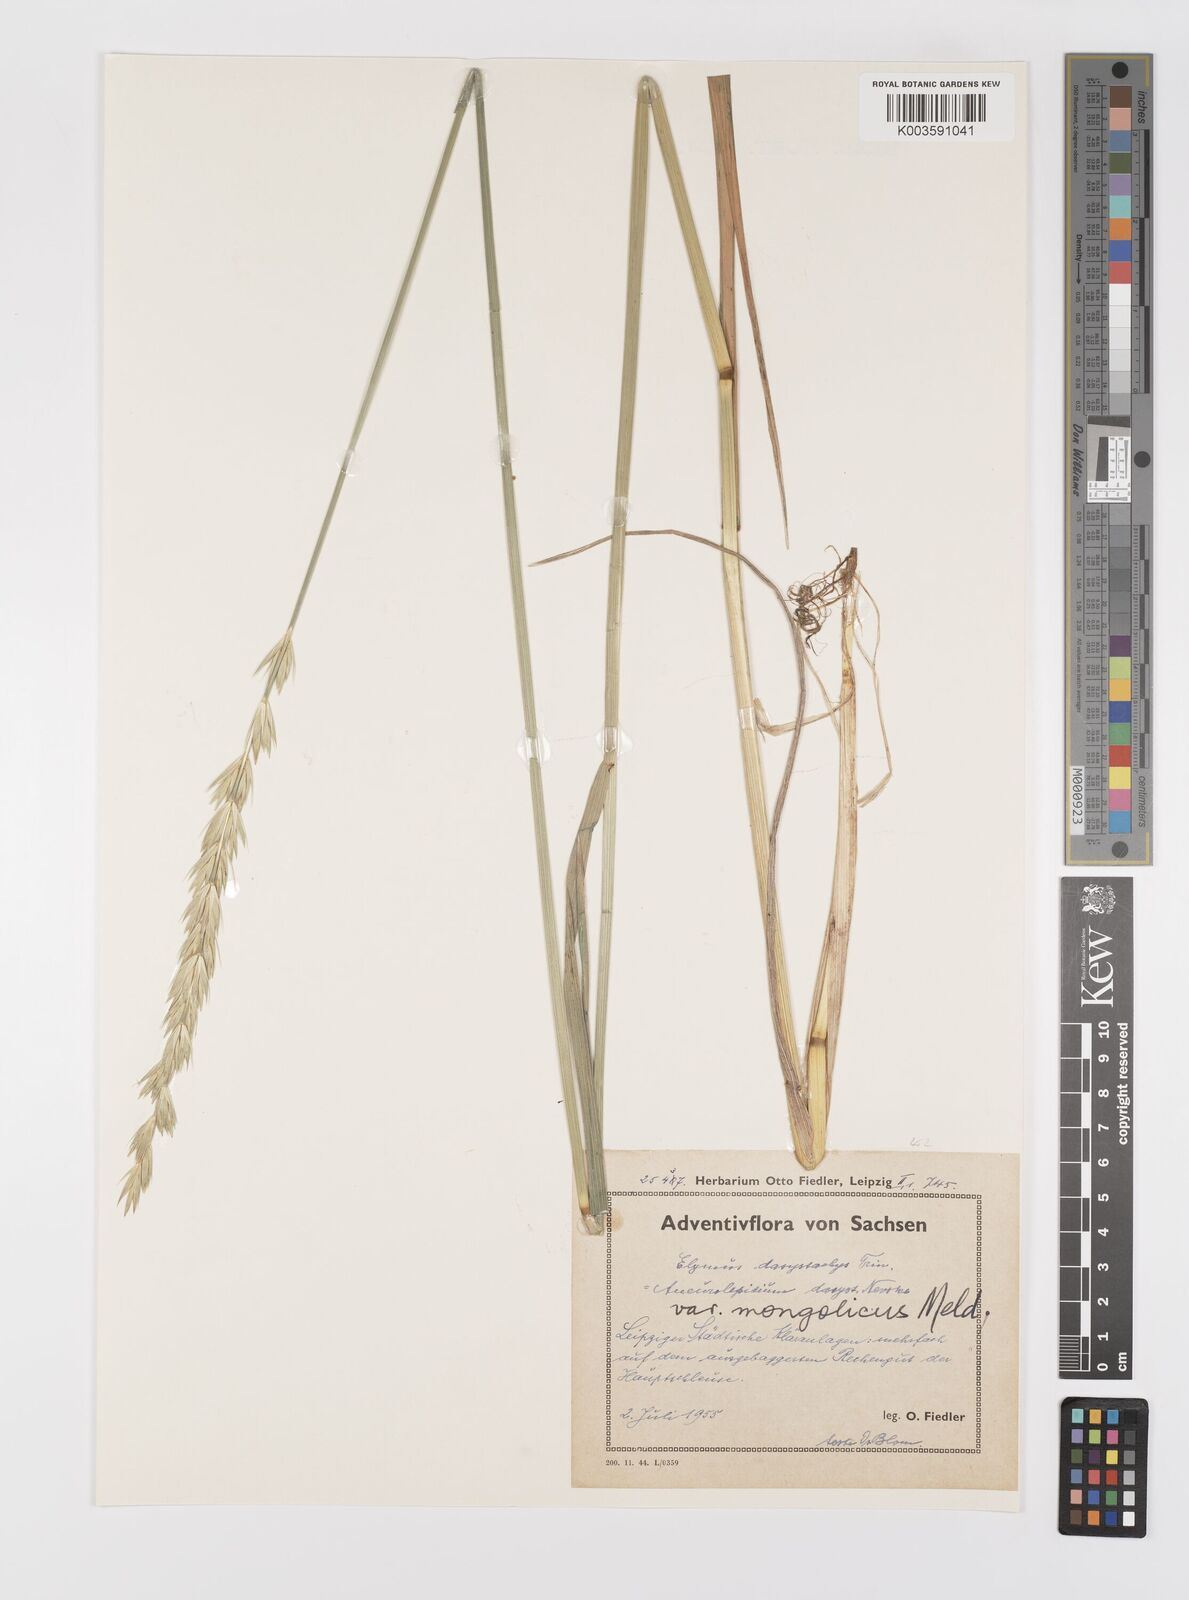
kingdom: Plantae
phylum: Tracheophyta
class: Liliopsida
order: Poales
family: Poaceae
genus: Leymus
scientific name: Leymus secalinus
